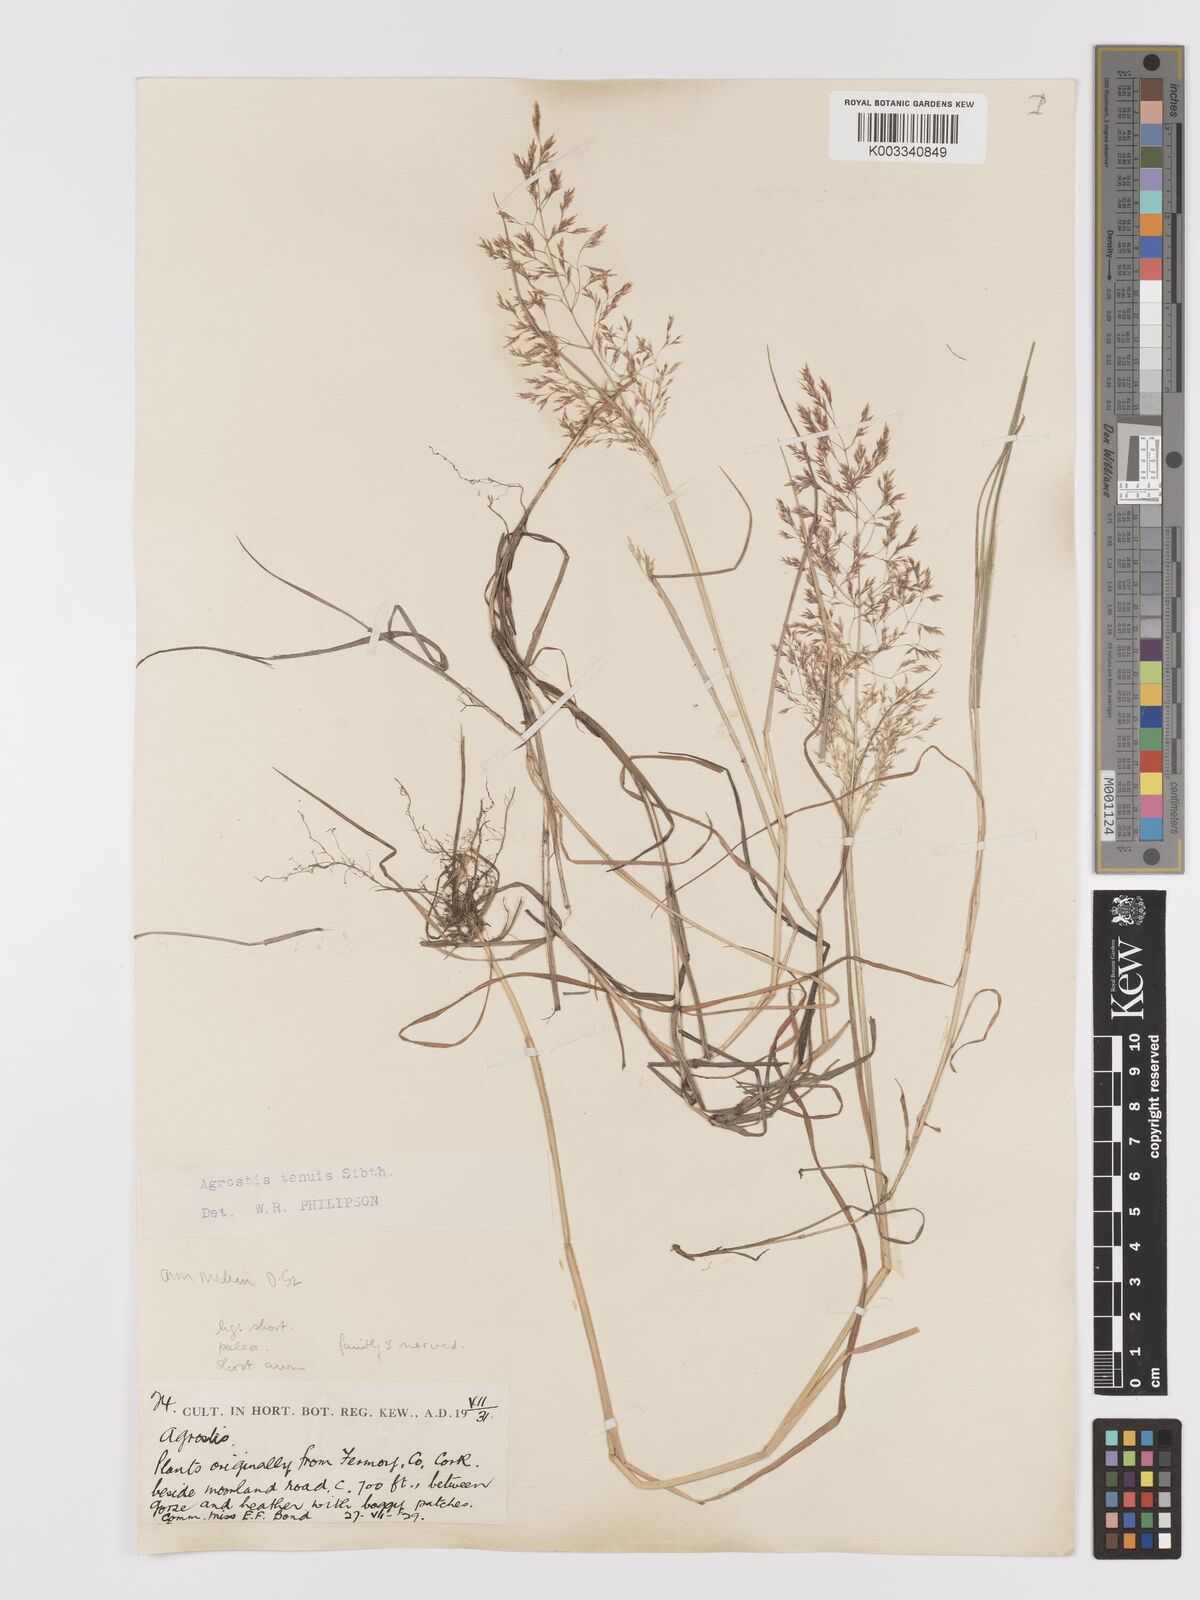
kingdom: Plantae
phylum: Tracheophyta
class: Liliopsida
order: Poales
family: Poaceae
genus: Agrostis
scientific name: Agrostis capillaris
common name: Colonial bentgrass
